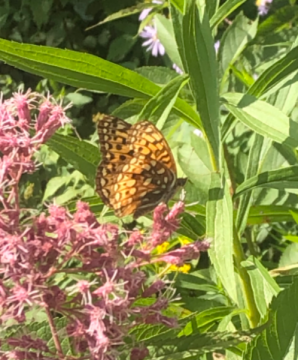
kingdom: Animalia
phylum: Arthropoda
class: Insecta
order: Lepidoptera
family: Nymphalidae
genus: Speyeria
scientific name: Speyeria atlantis
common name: Atlantis Fritillary
